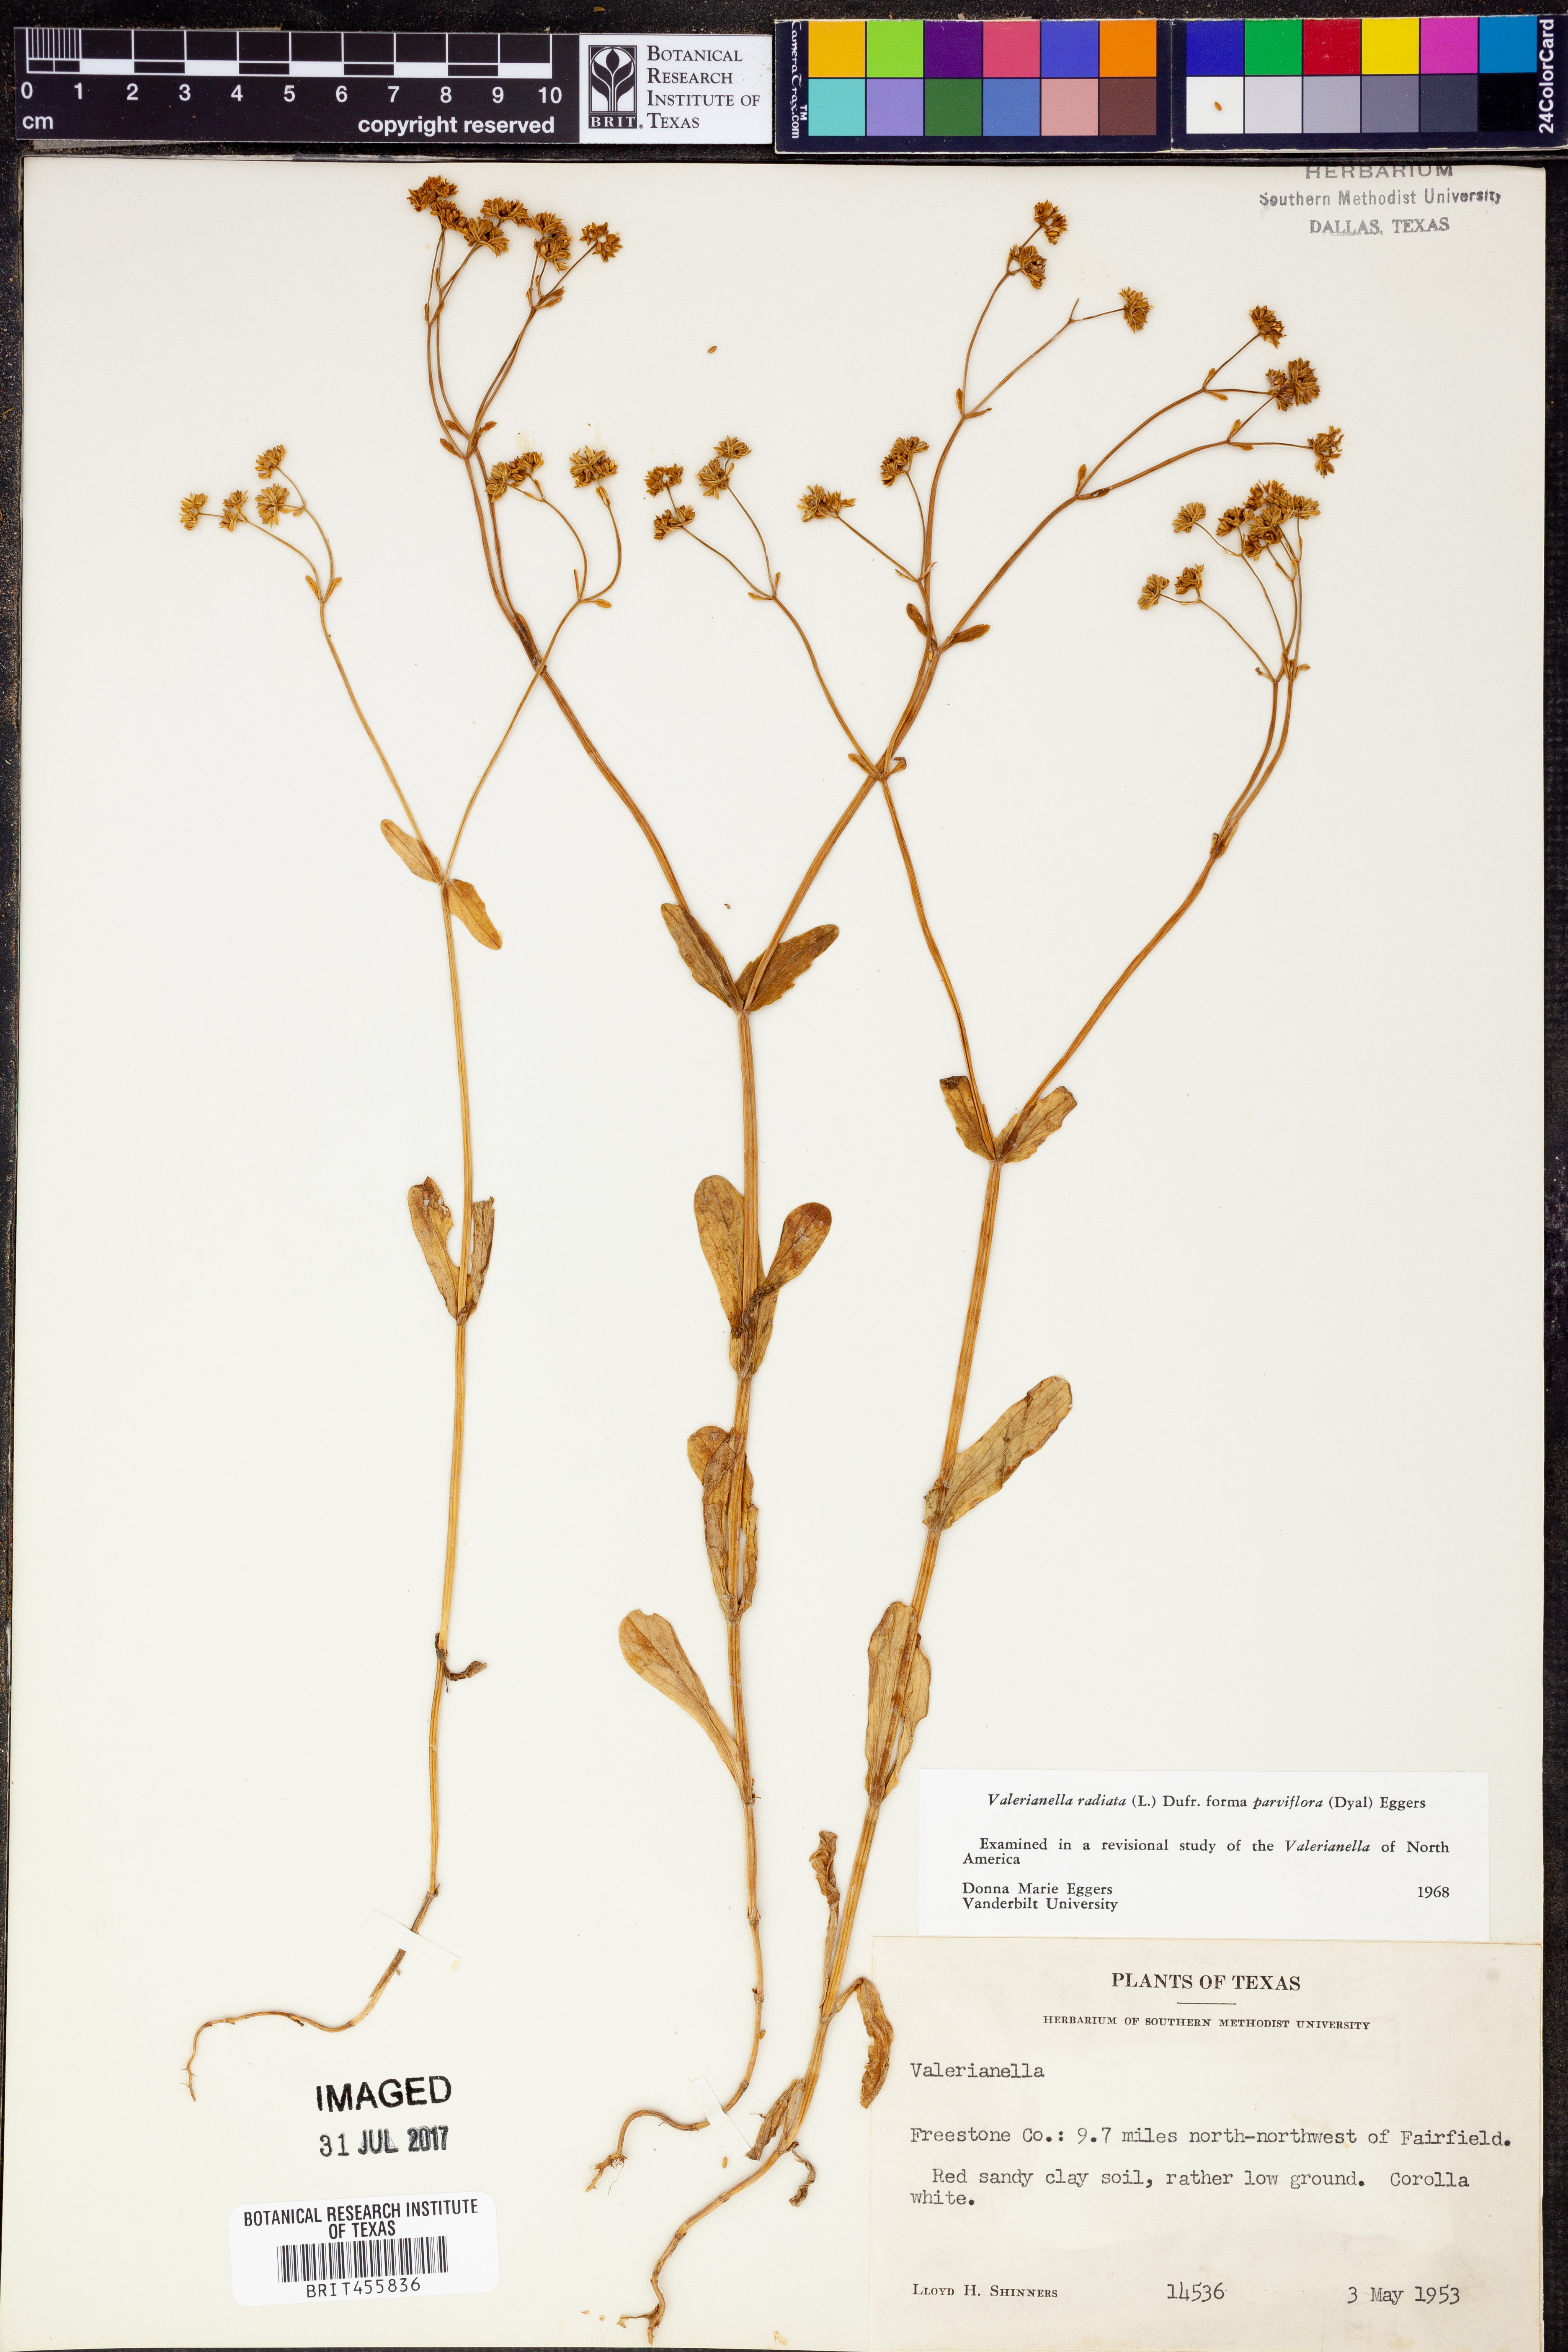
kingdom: Plantae
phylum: Tracheophyta
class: Magnoliopsida
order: Dipsacales
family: Caprifoliaceae
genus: Valerianella
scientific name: Valerianella radiata
